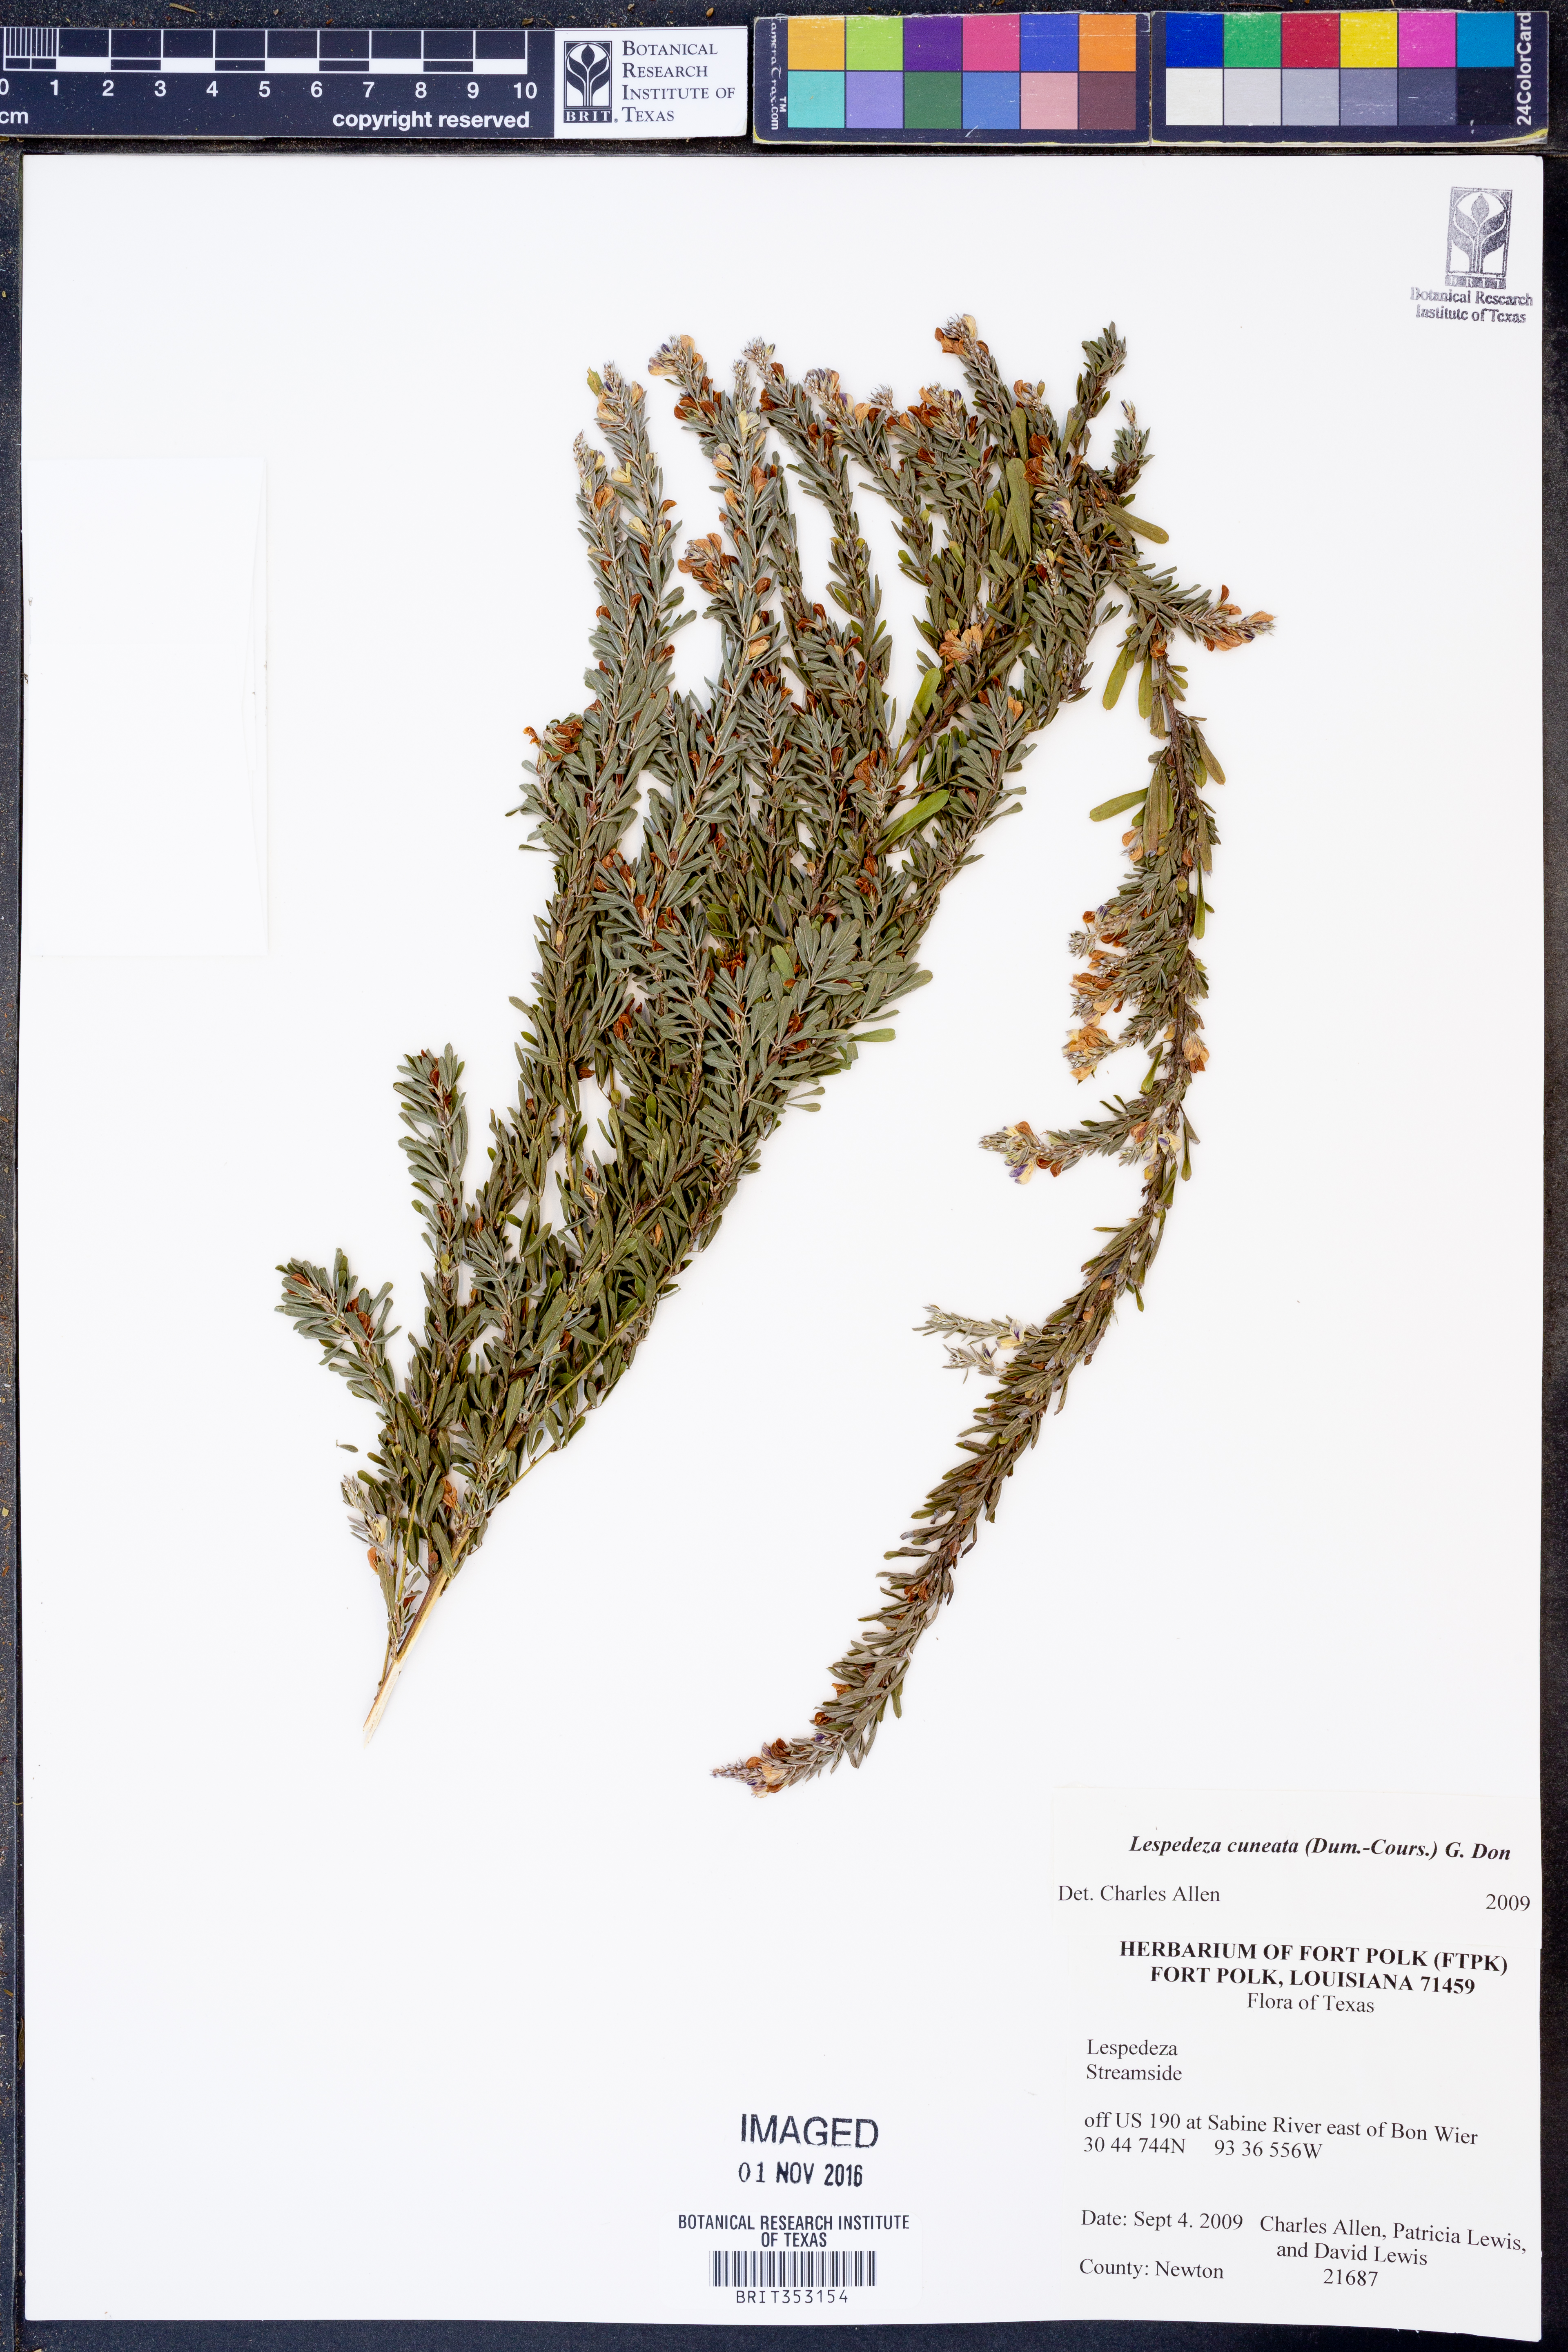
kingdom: Plantae
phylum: Tracheophyta
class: Magnoliopsida
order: Fabales
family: Fabaceae
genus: Lespedeza
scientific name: Lespedeza
